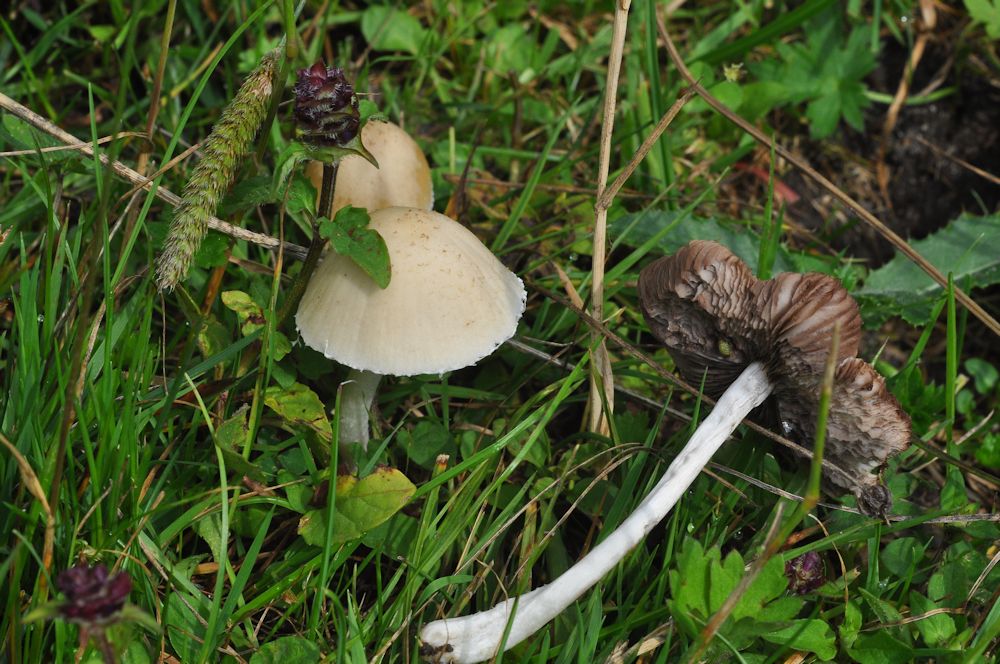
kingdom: Fungi
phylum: Basidiomycota
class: Agaricomycetes
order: Agaricales
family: Psathyrellaceae
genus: Candolleomyces
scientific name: Candolleomyces candolleanus
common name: Candolles mørkhat
